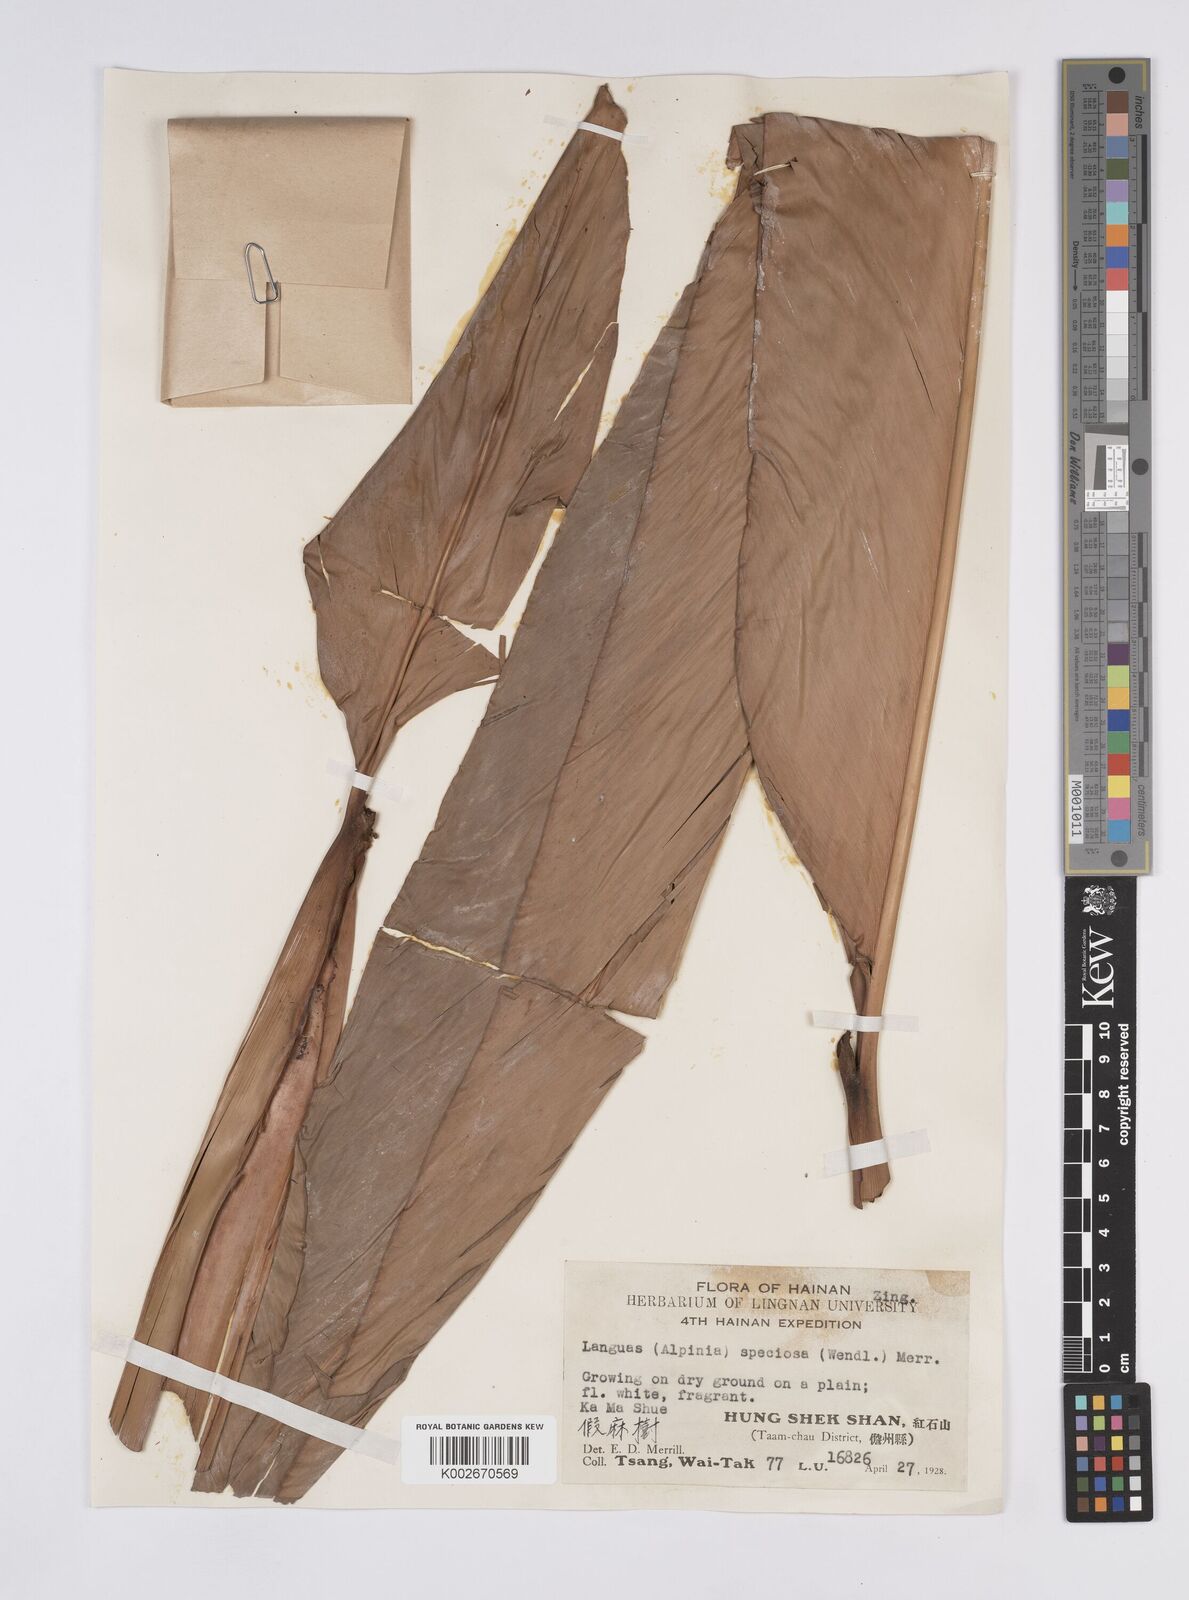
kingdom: Plantae
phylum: Tracheophyta
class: Liliopsida
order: Zingiberales
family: Zingiberaceae
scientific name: Zingiberaceae
